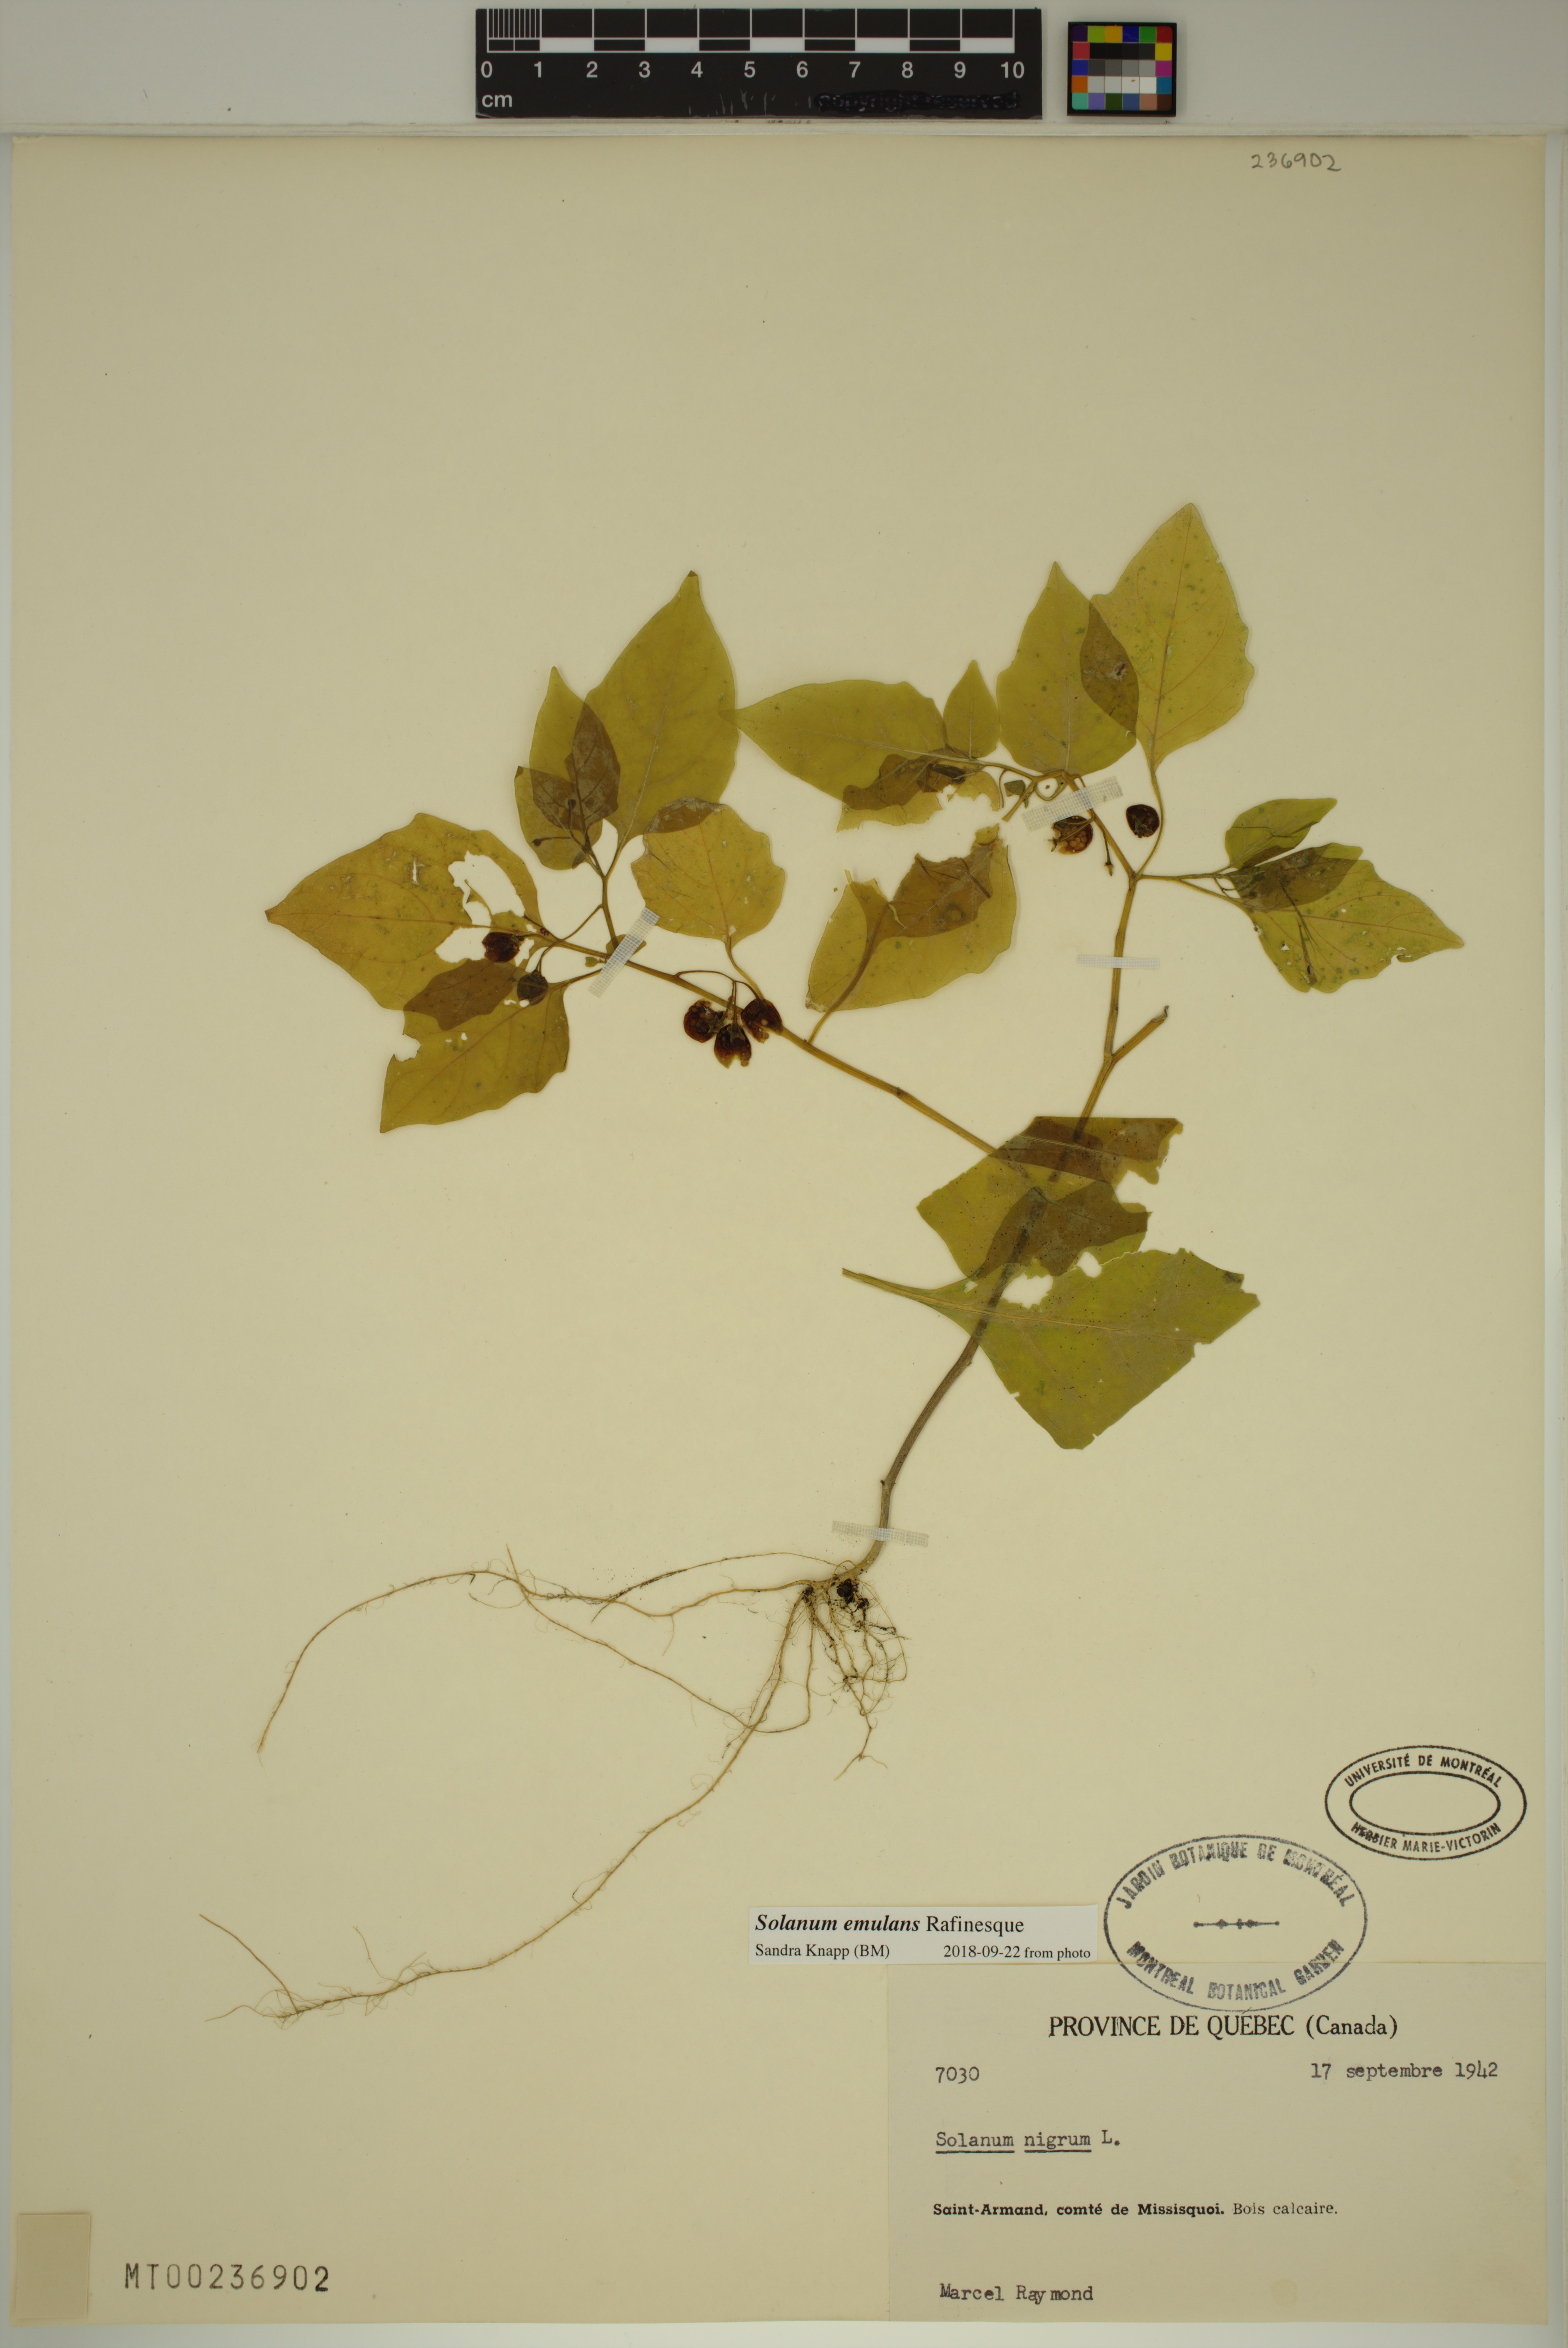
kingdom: Plantae
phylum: Tracheophyta
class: Magnoliopsida
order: Solanales
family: Solanaceae
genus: Solanum
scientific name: Solanum emulans
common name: Eastern black nightshade
